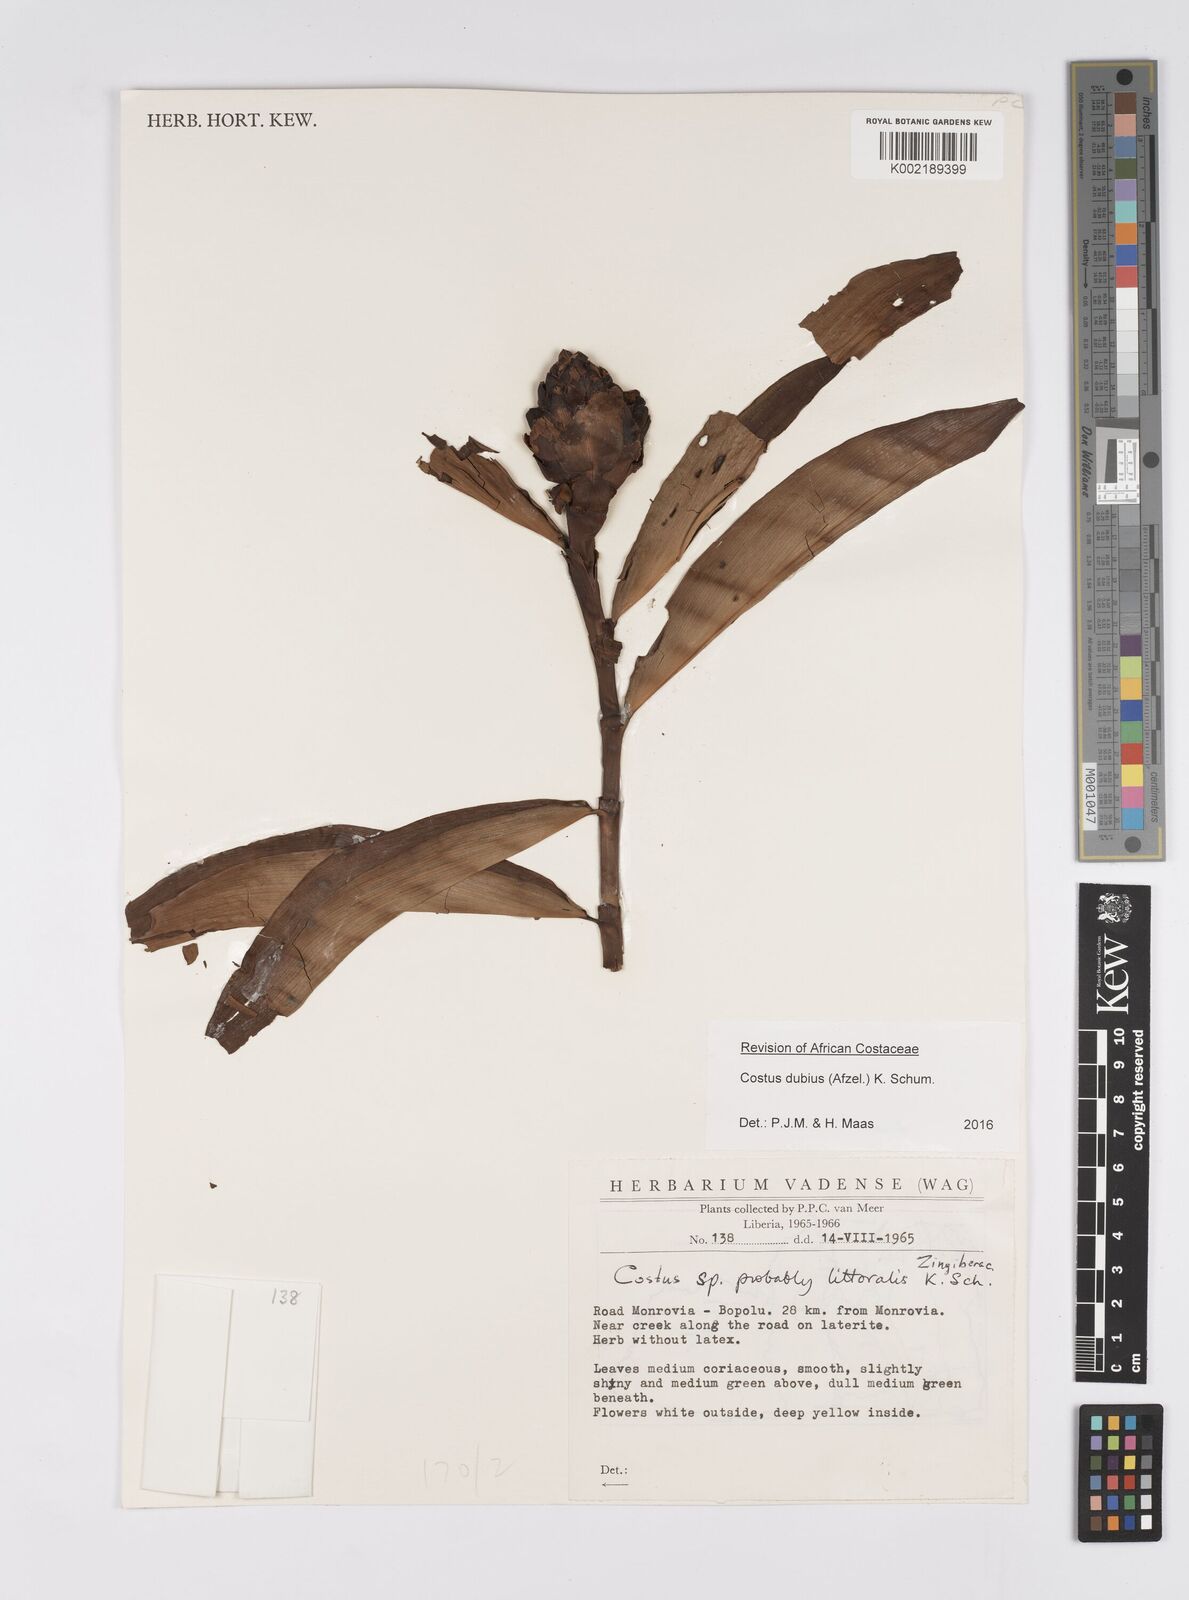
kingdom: Plantae
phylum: Tracheophyta
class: Liliopsida
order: Zingiberales
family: Costaceae
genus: Costus
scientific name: Costus dubius
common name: Costus
